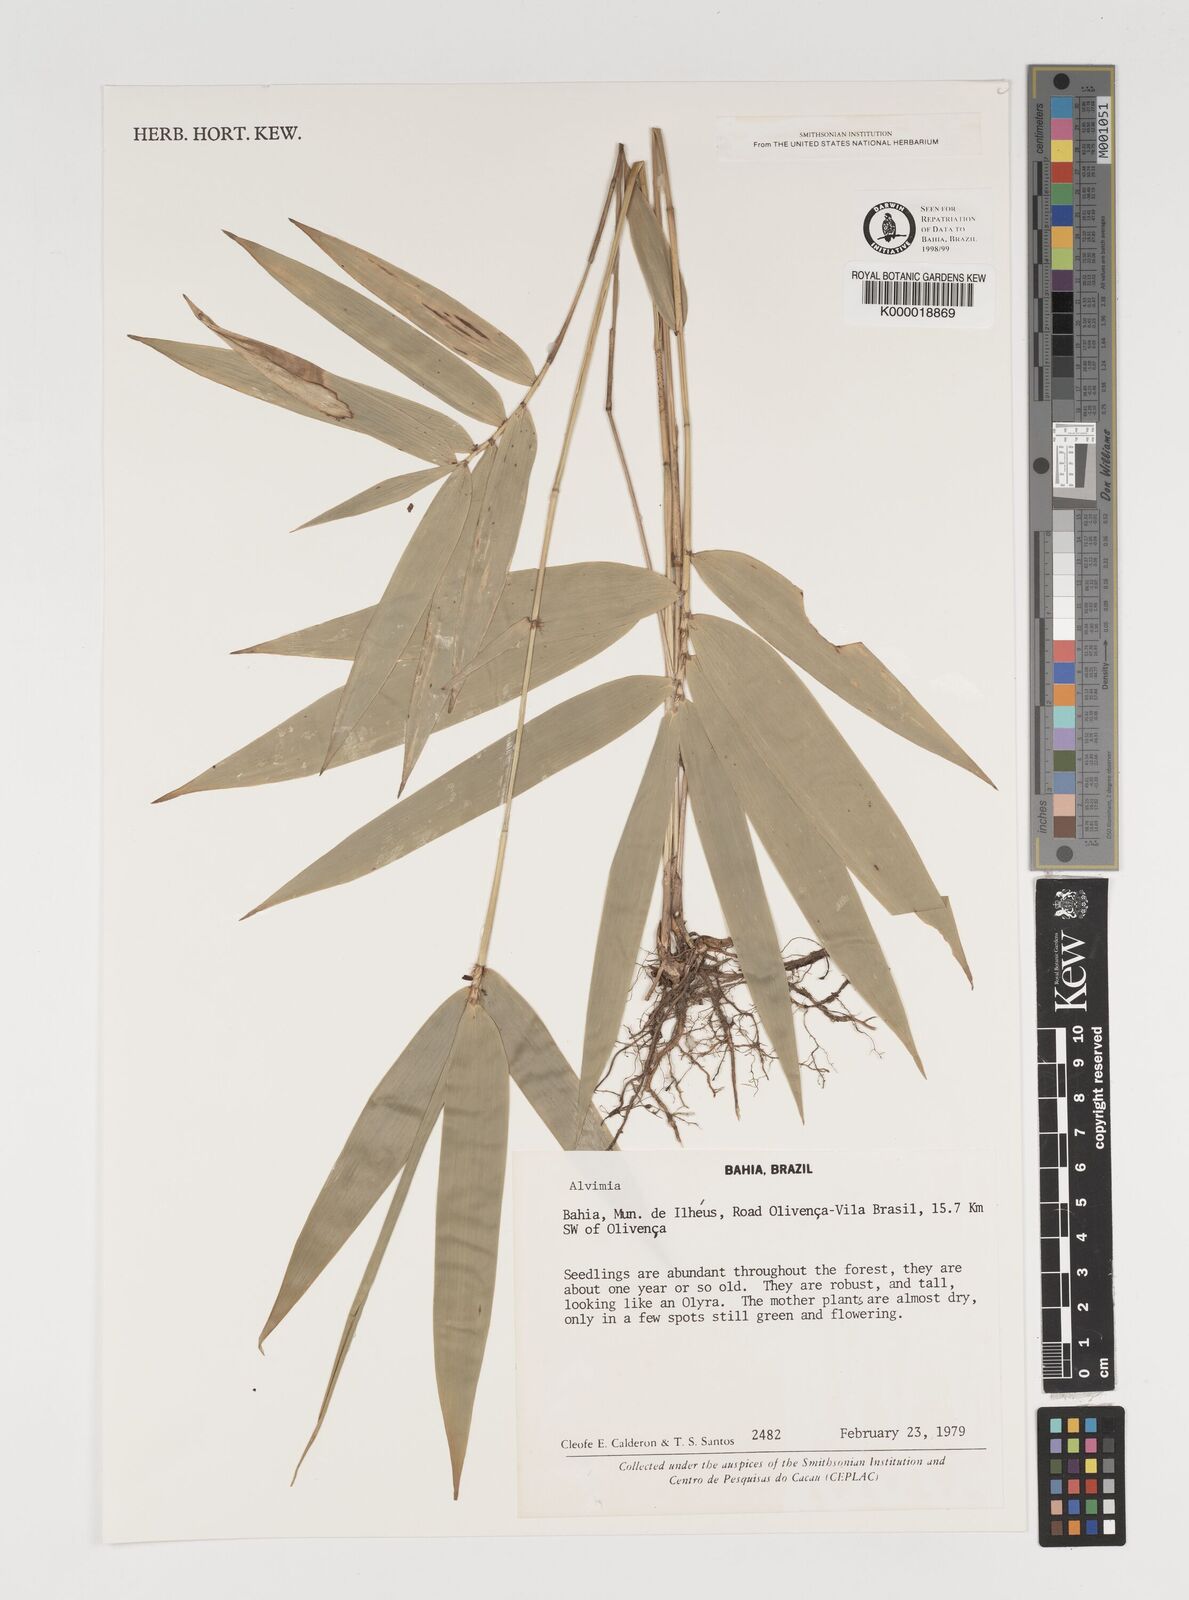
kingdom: Plantae
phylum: Tracheophyta
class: Liliopsida
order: Poales
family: Poaceae
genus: Alvimia
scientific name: Alvimia
